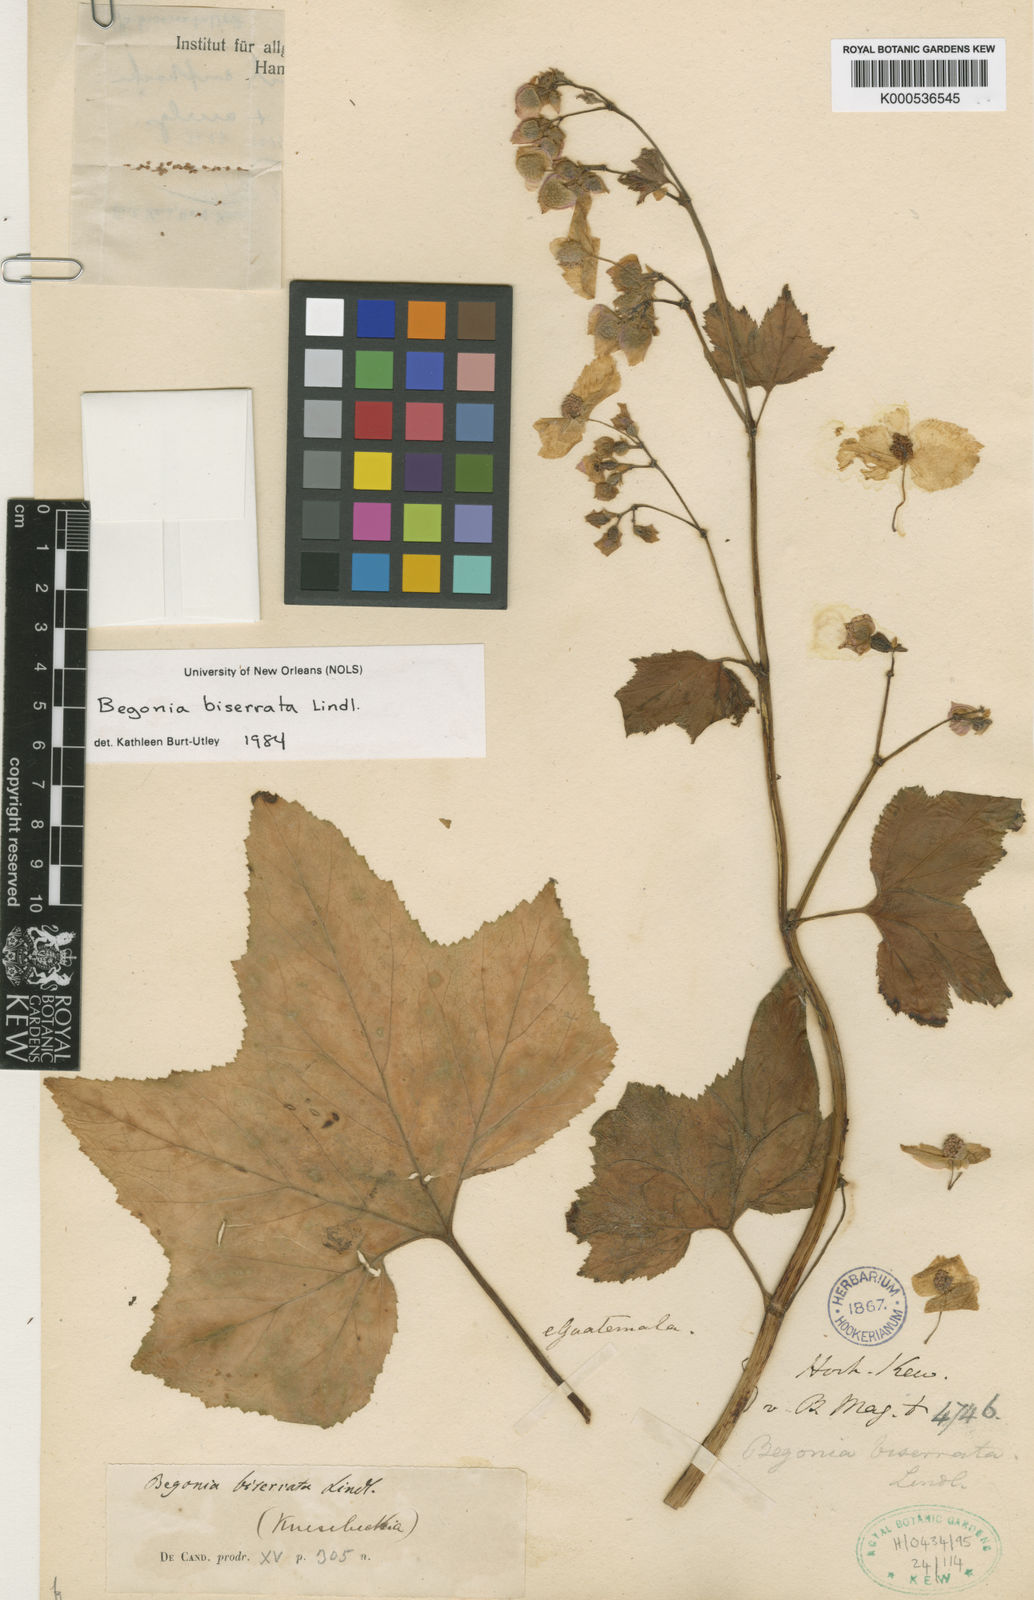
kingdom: Plantae
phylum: Tracheophyta
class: Magnoliopsida
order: Cucurbitales
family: Begoniaceae
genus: Begonia
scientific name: Begonia biserrata
